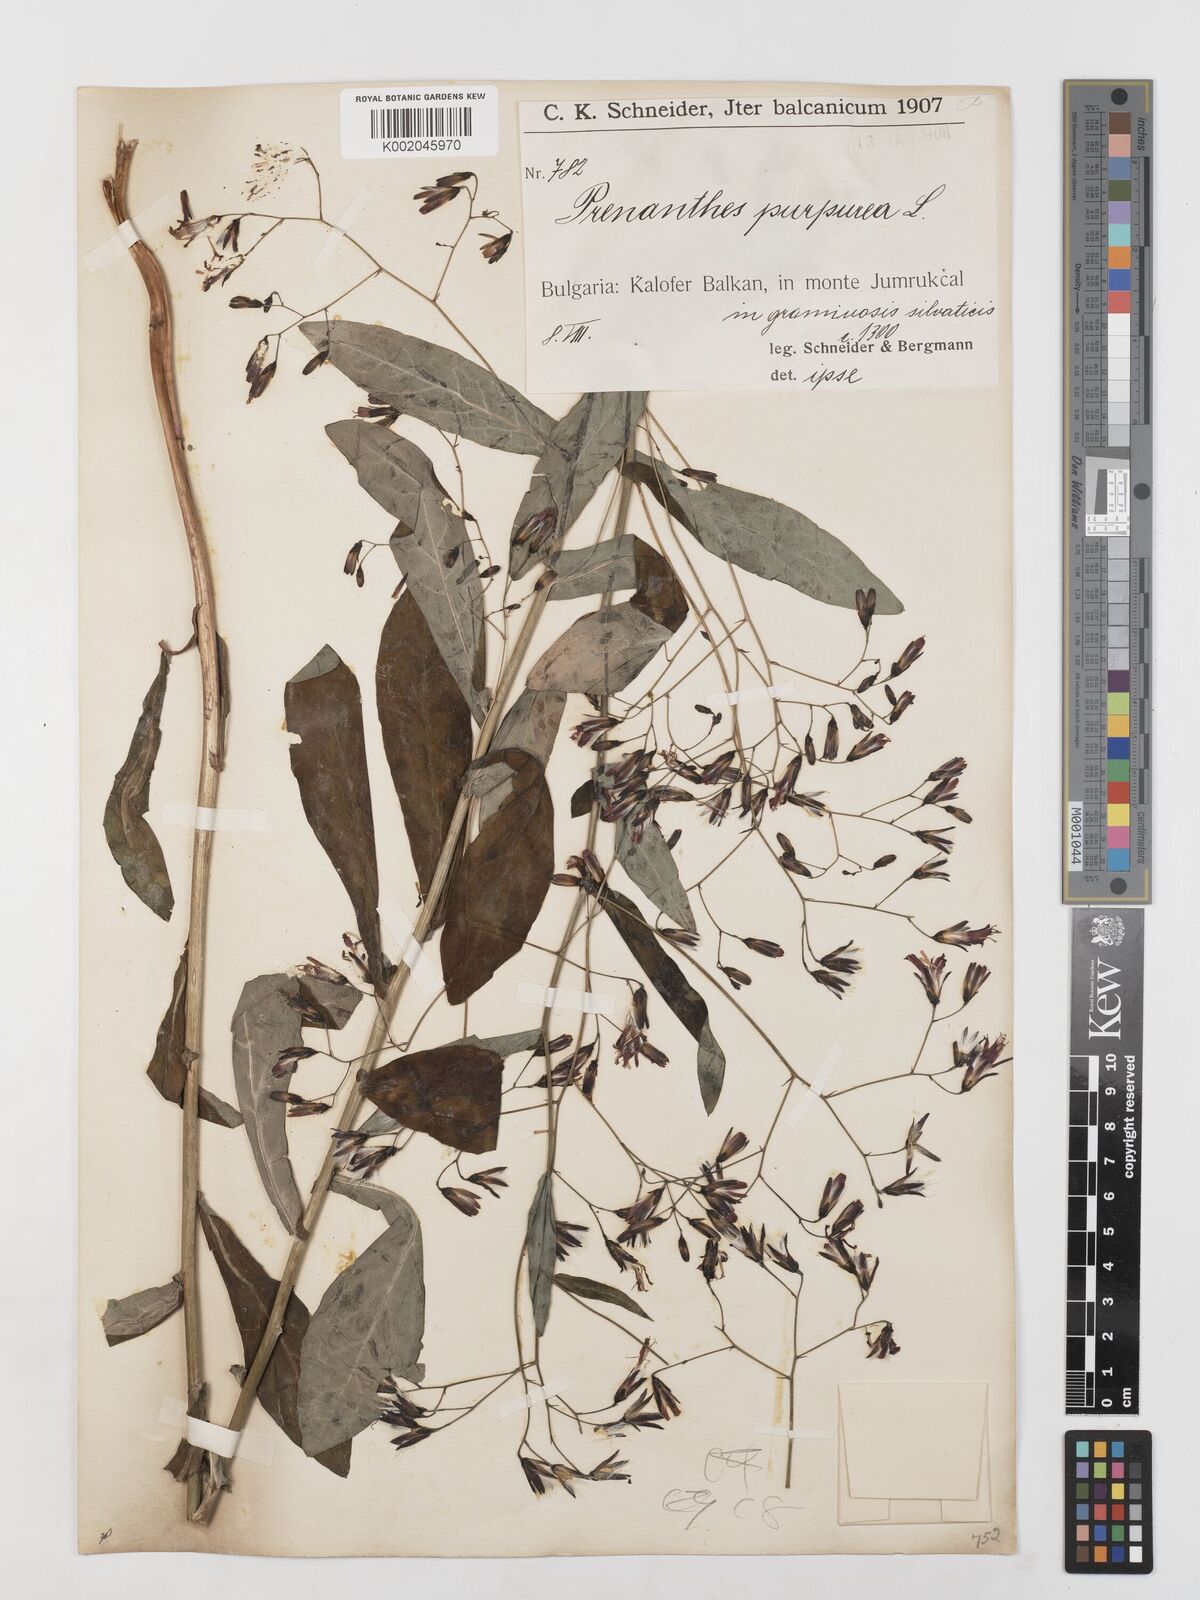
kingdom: Plantae
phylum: Tracheophyta
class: Magnoliopsida
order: Asterales
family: Asteraceae
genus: Prenanthes
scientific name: Prenanthes purpurea
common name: Purple lettuce
